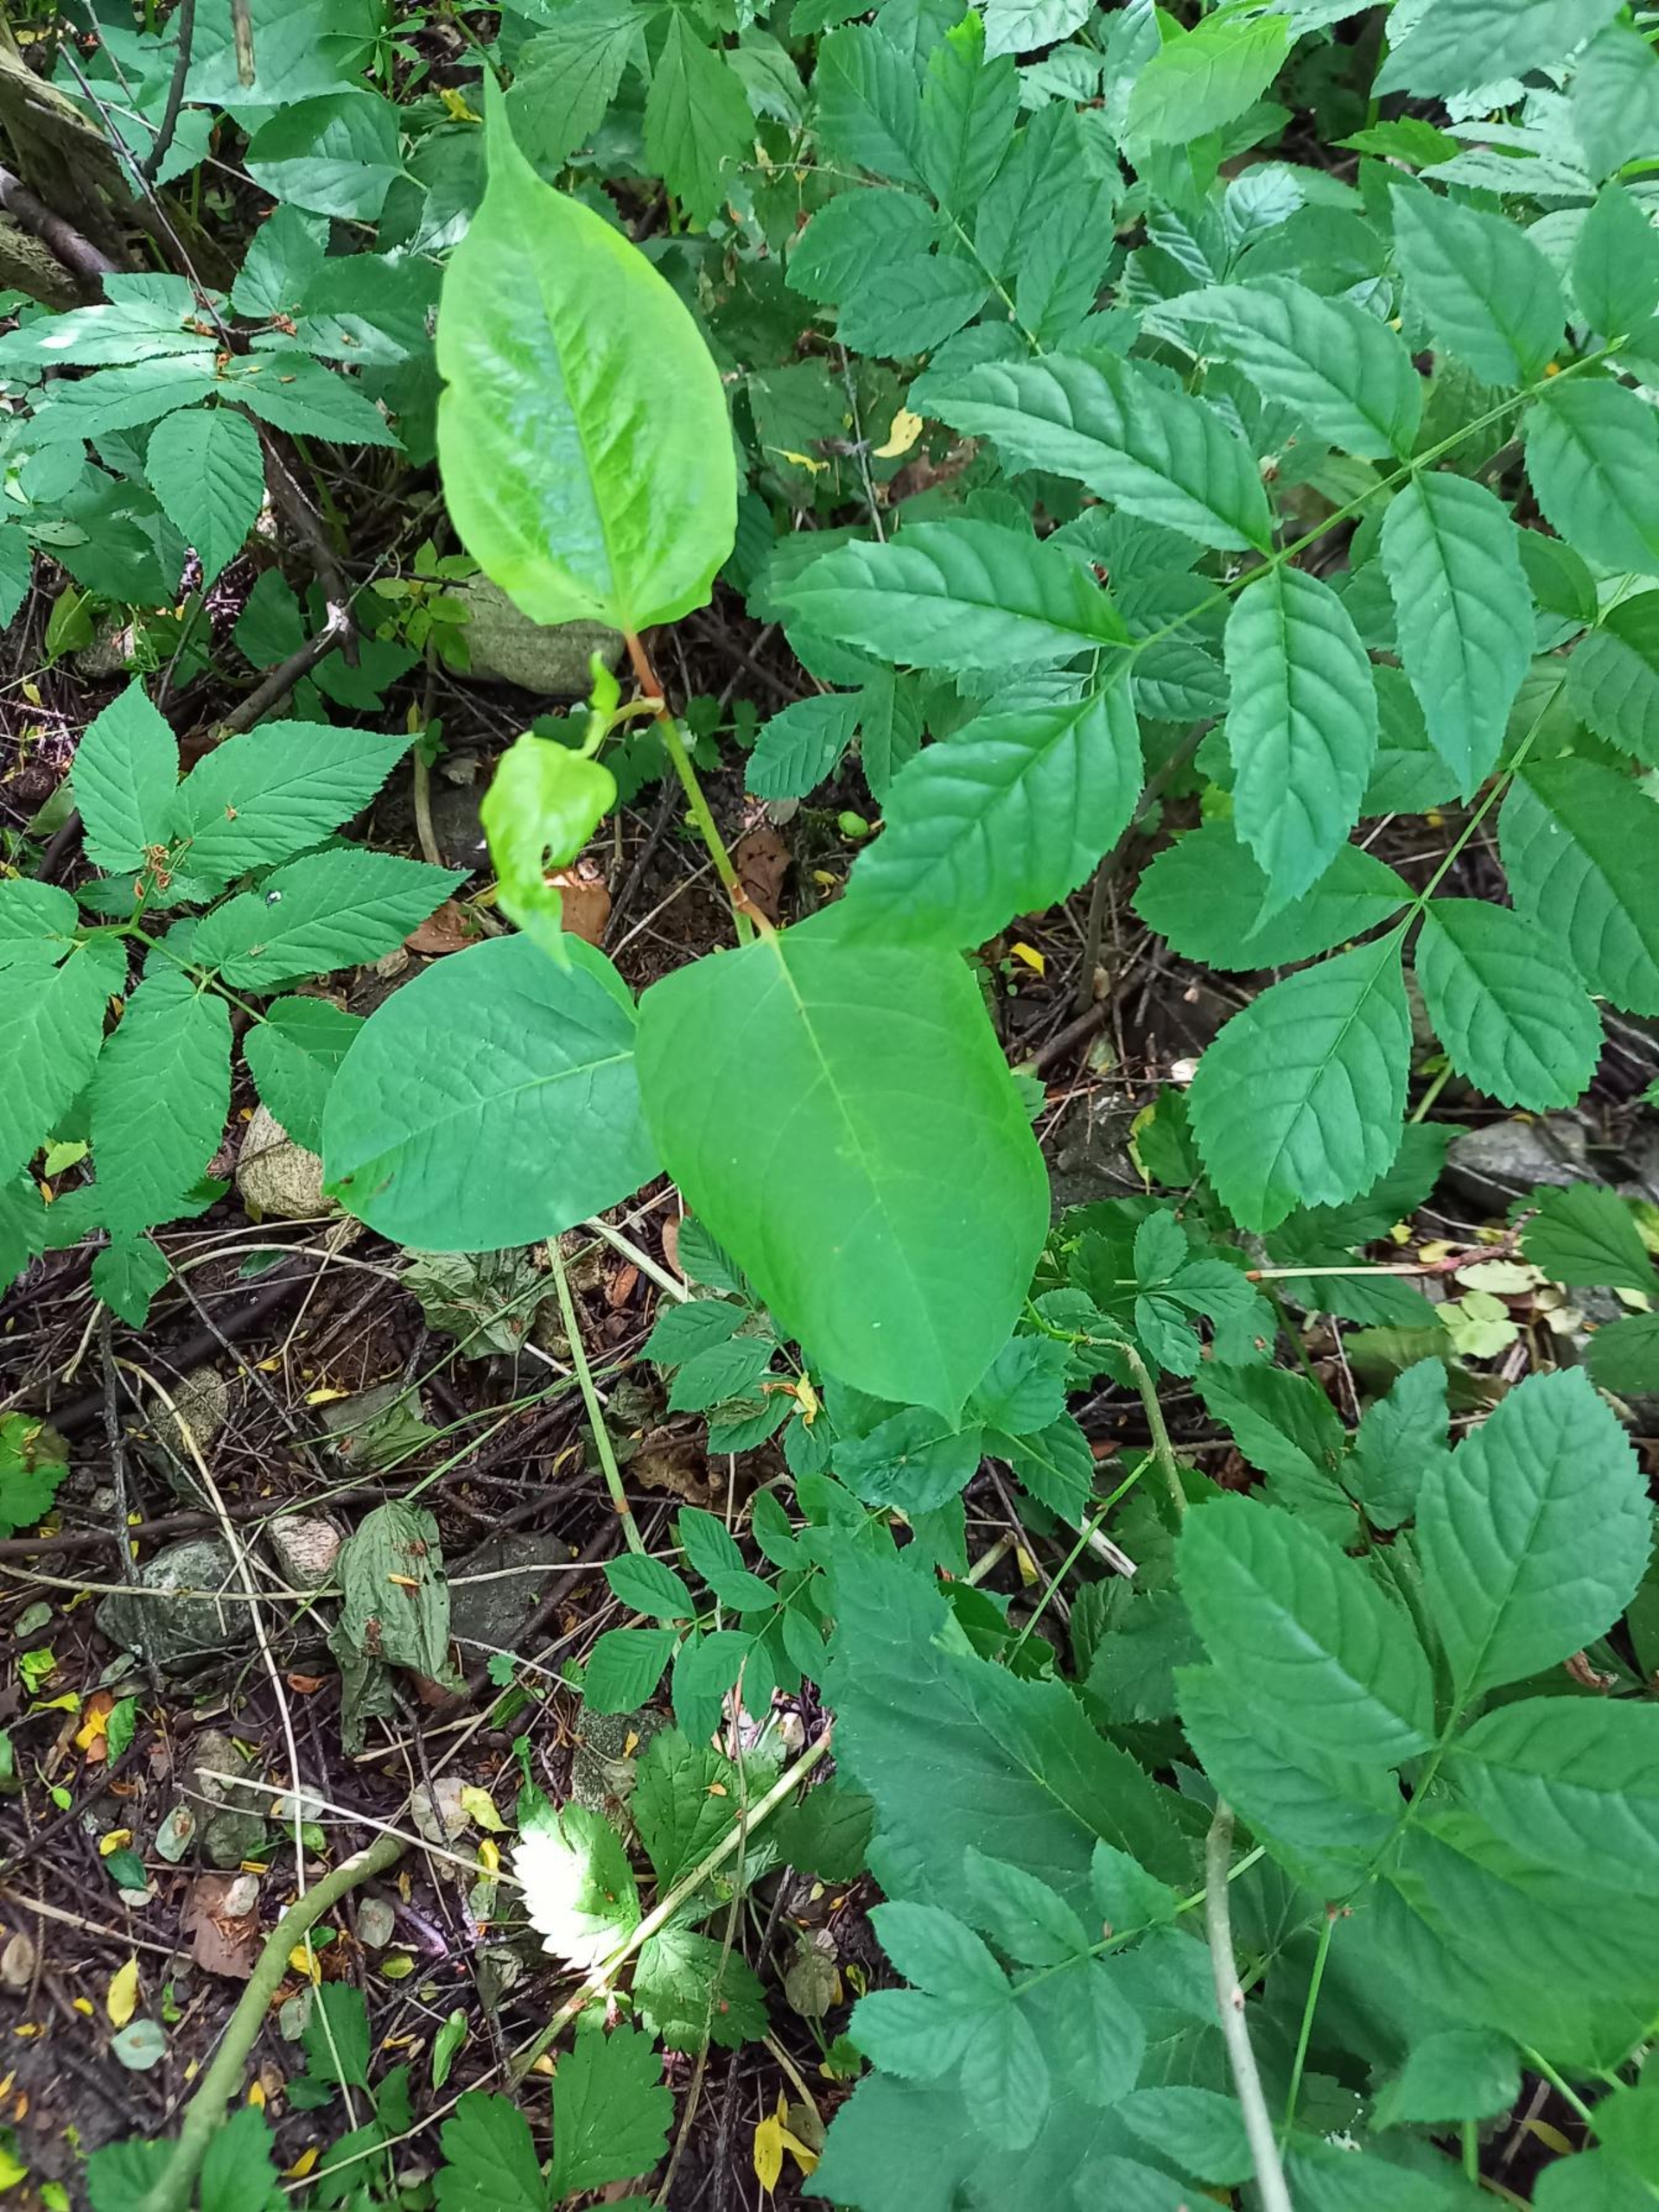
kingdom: Plantae
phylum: Tracheophyta
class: Magnoliopsida
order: Caryophyllales
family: Polygonaceae
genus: Reynoutria
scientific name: Reynoutria japonica
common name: Japan-pileurt
